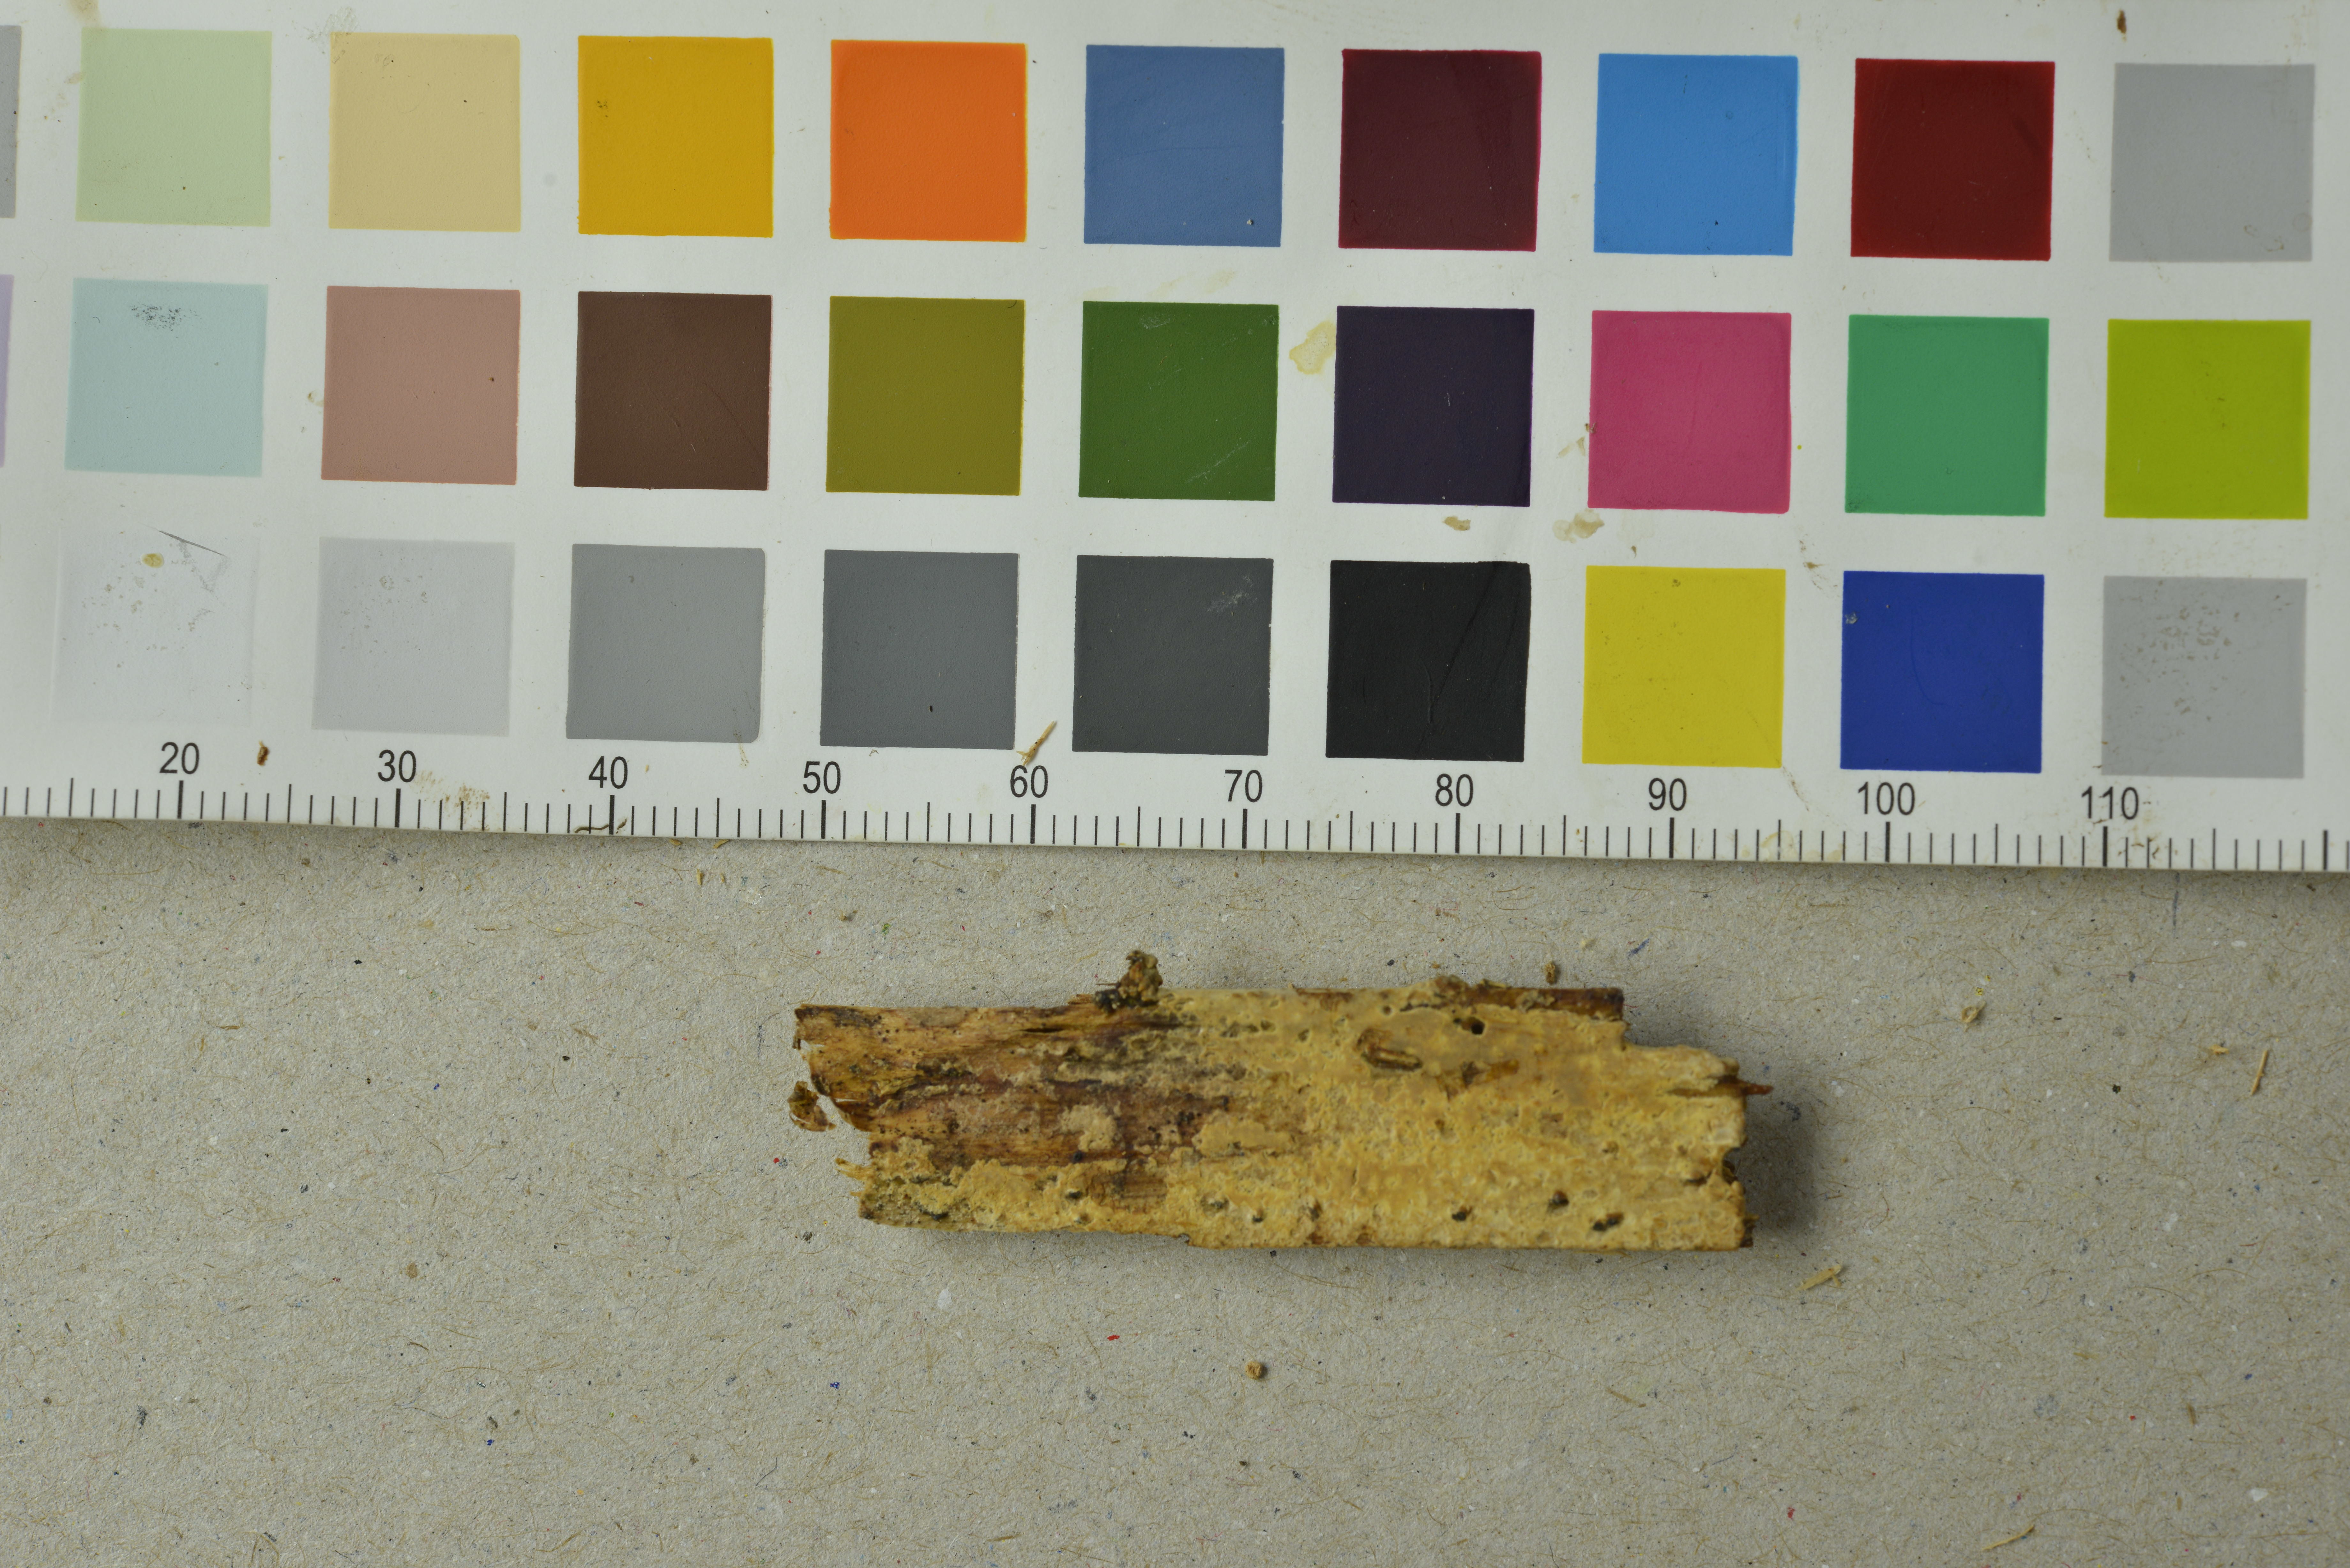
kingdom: Fungi
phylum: Basidiomycota
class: Agaricomycetes
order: Polyporales
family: Meruliaceae
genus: Phlebia
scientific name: Phlebia lilascens
